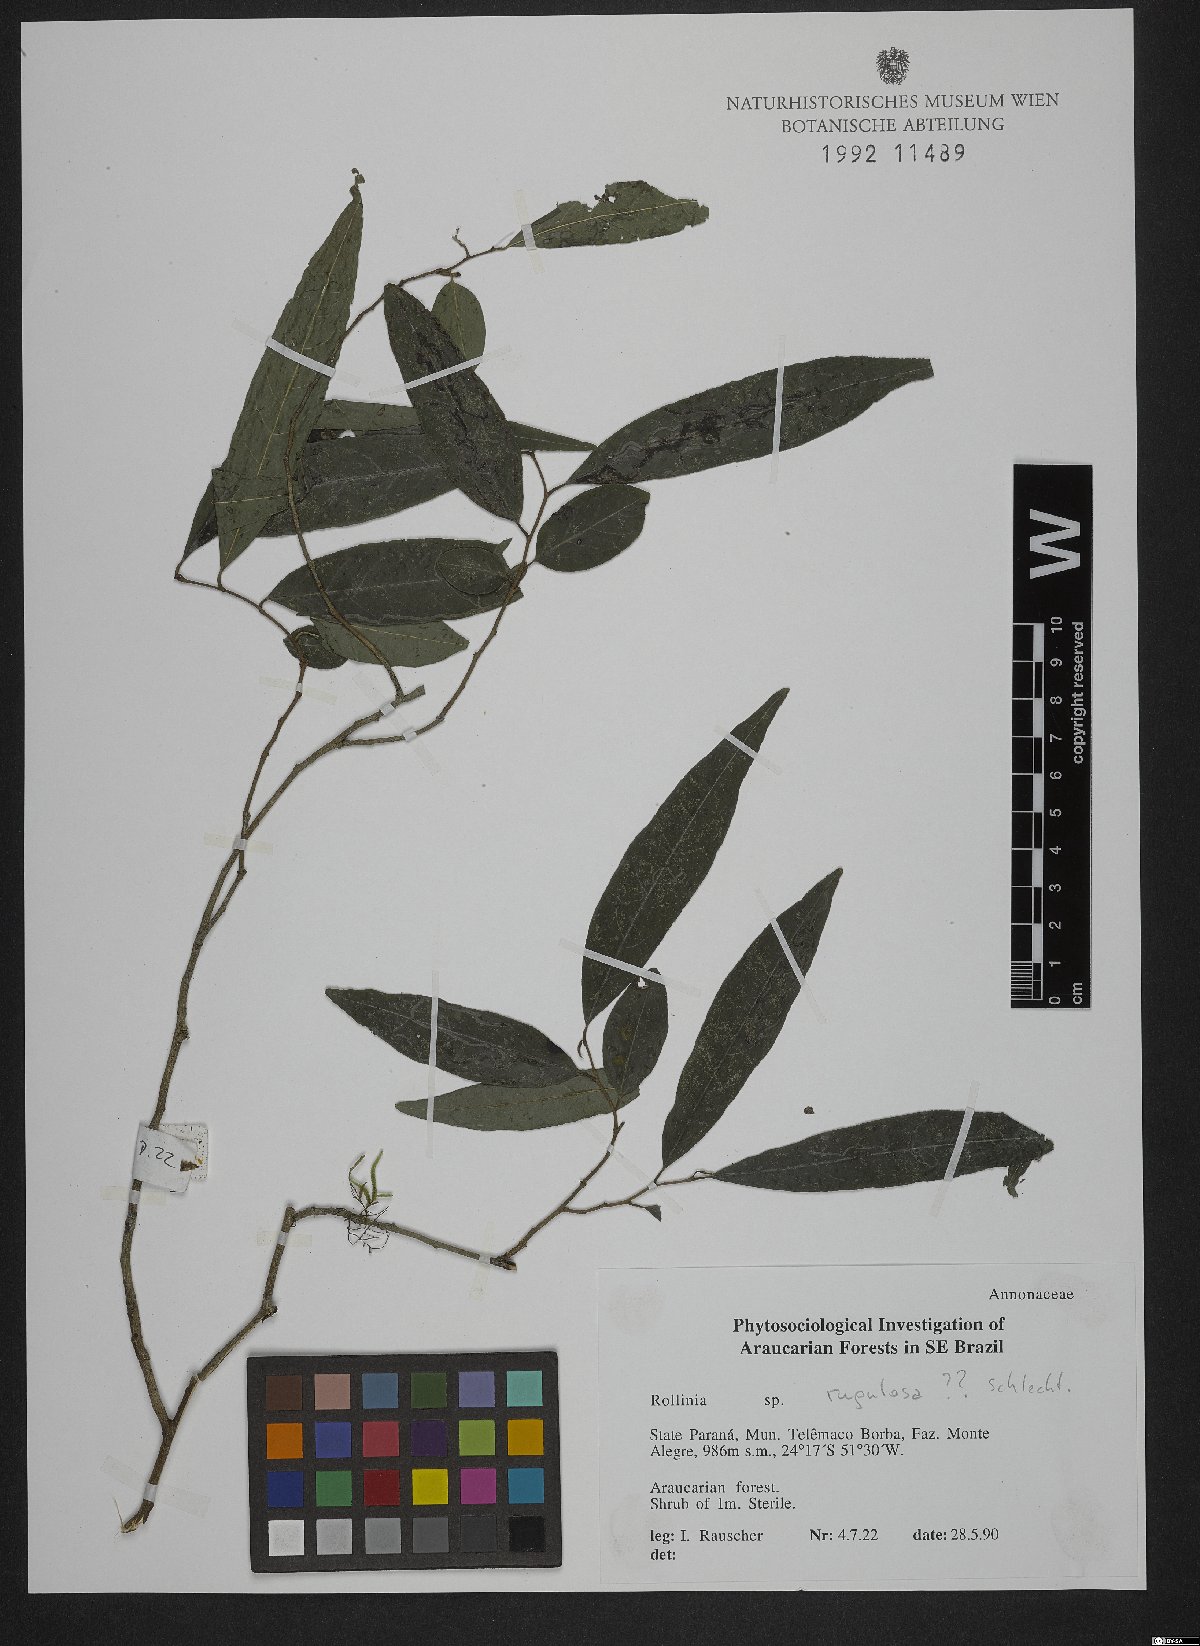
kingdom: Plantae
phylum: Tracheophyta
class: Magnoliopsida
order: Magnoliales
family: Annonaceae
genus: Annona
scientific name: Annona rugulosa
